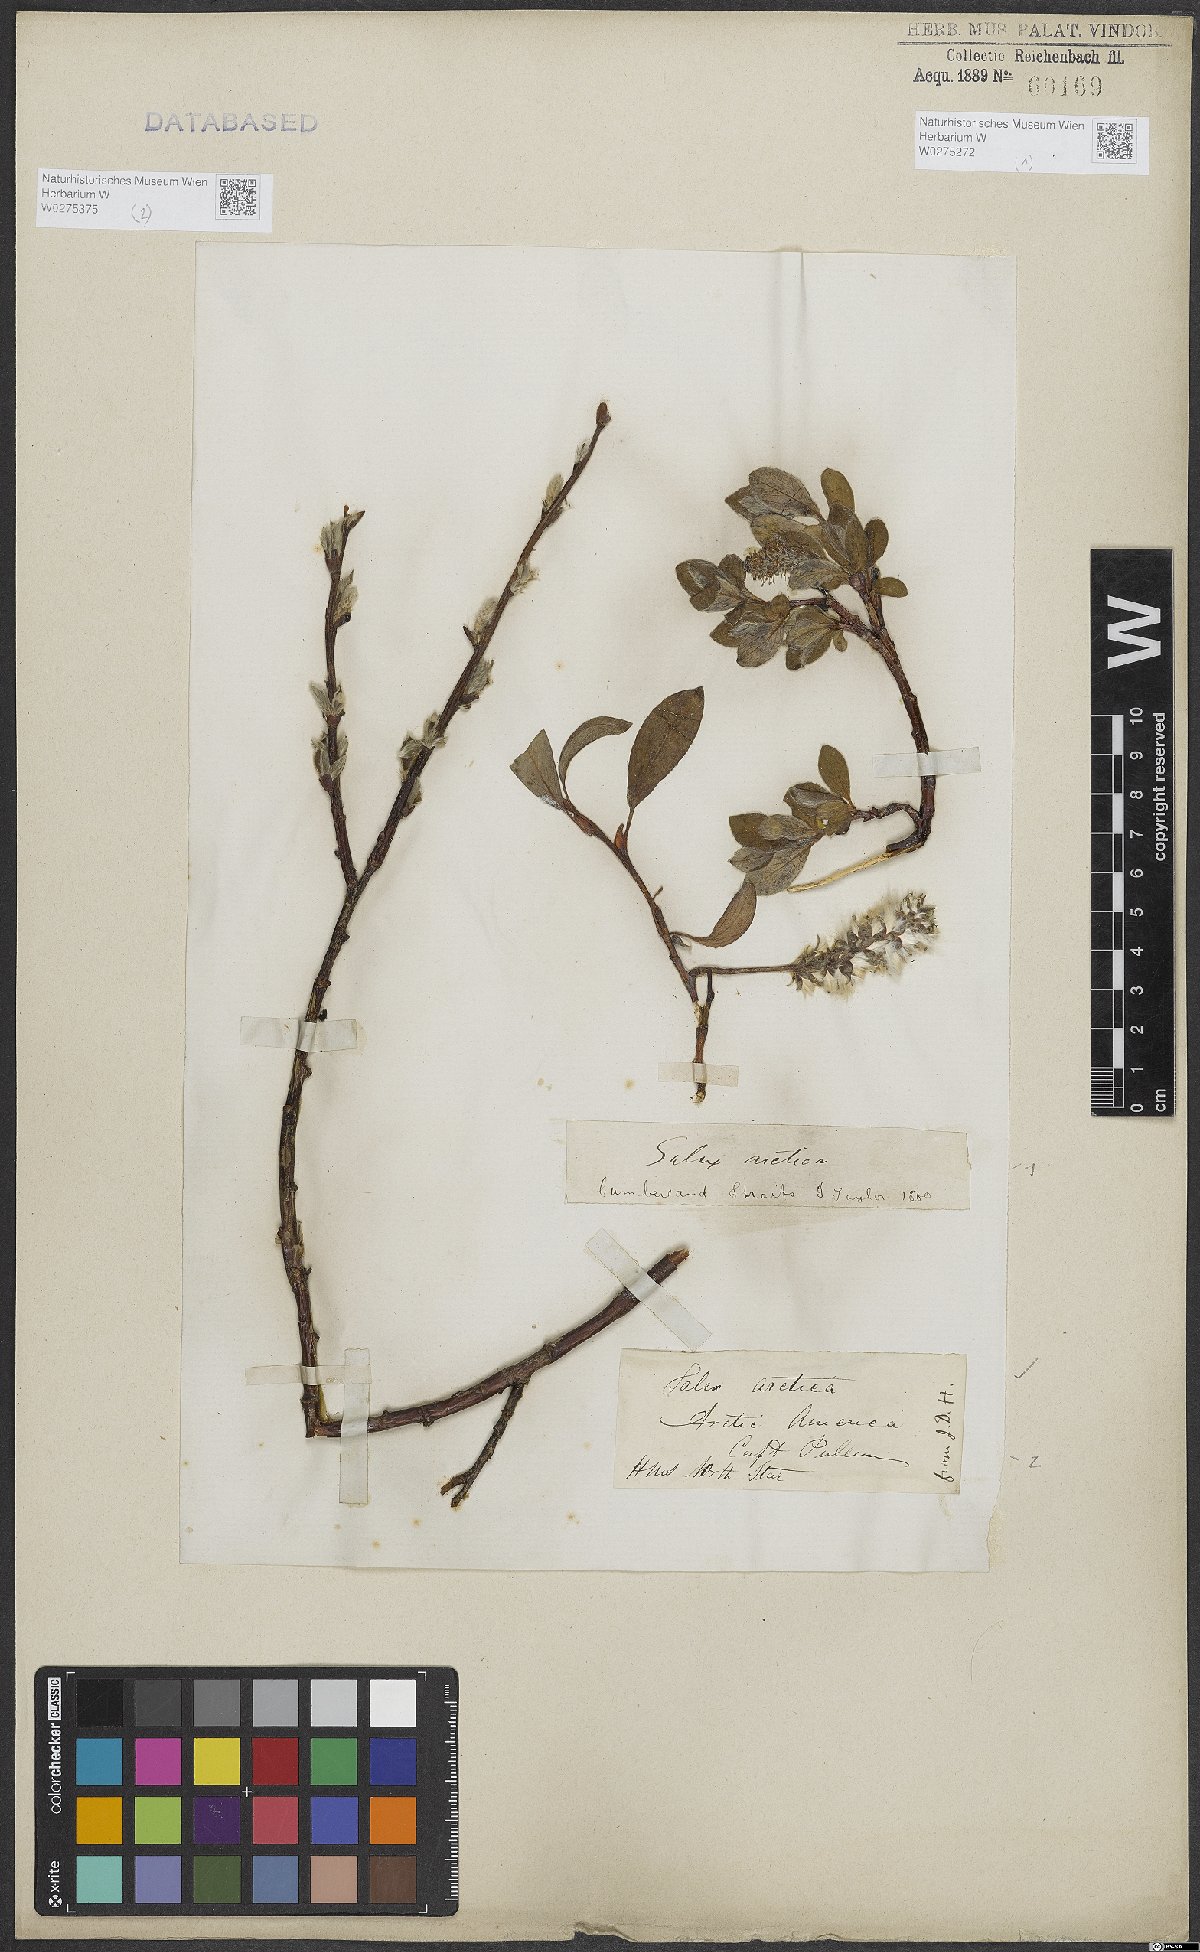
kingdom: Plantae
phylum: Tracheophyta
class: Magnoliopsida
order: Malpighiales
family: Salicaceae
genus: Salix
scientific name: Salix arctica
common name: Arctic willow
